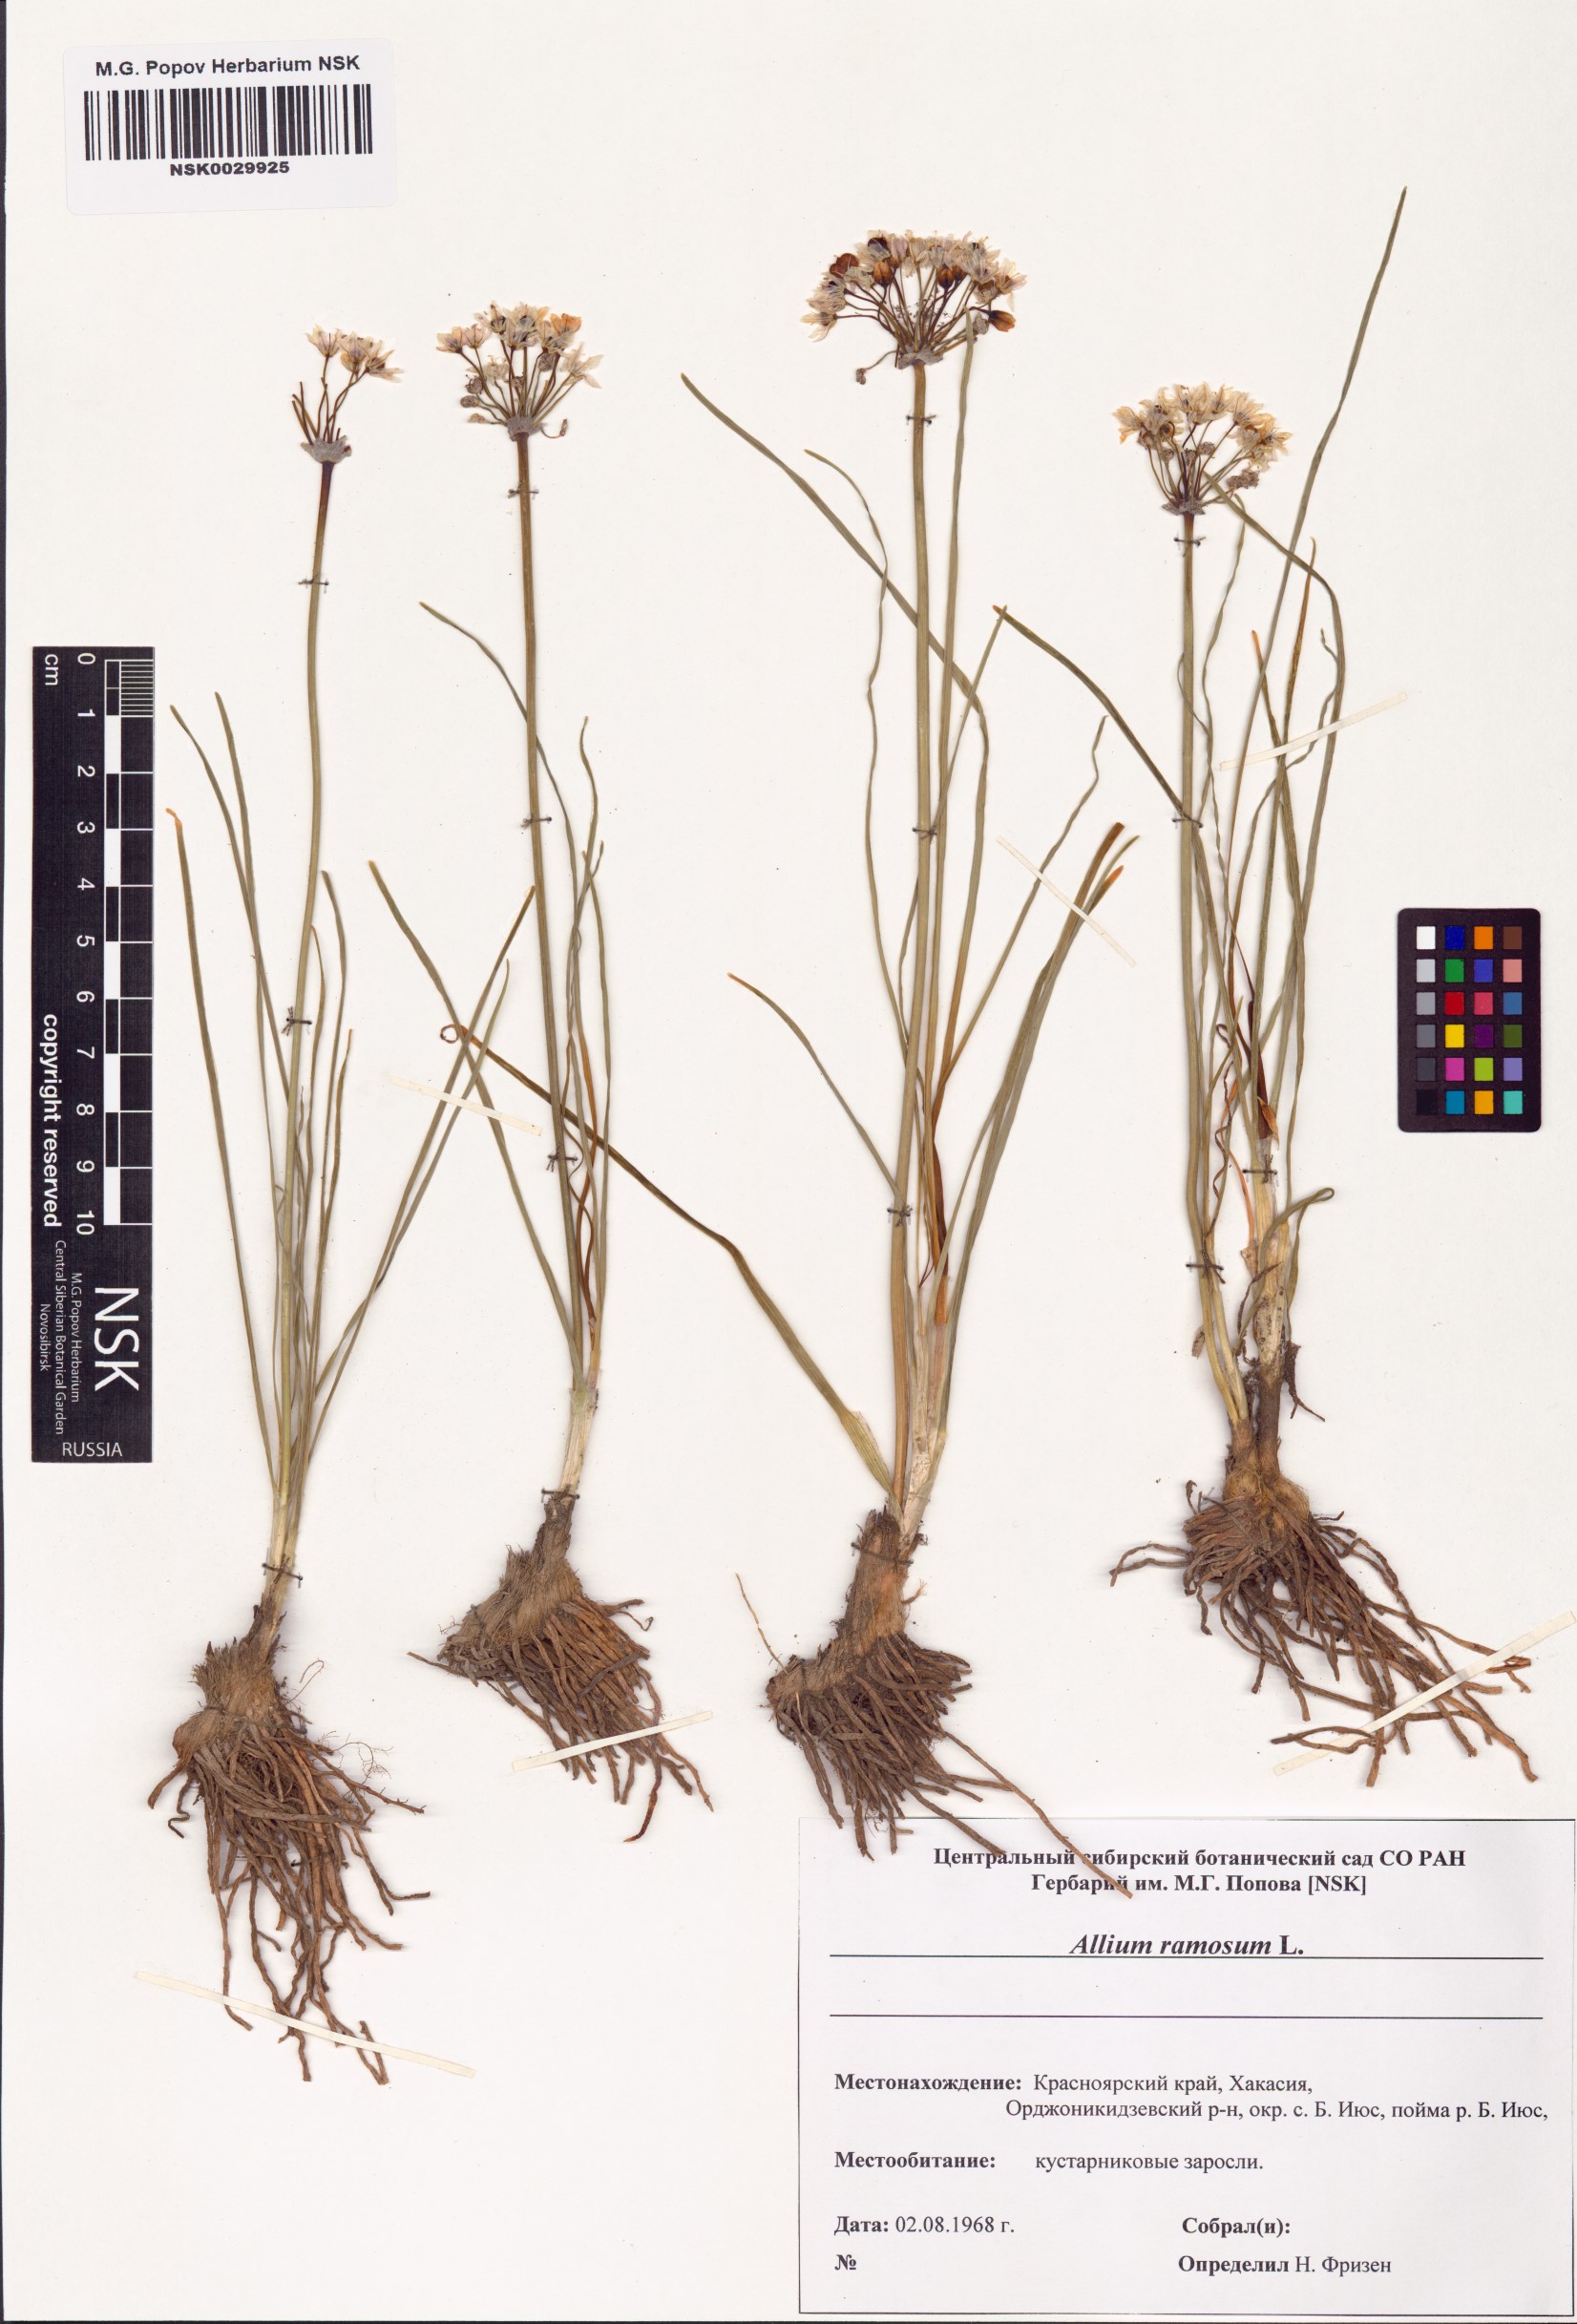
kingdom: Plantae
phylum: Tracheophyta
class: Liliopsida
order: Asparagales
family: Amaryllidaceae
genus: Allium
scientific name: Allium ramosum
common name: Fragrant garlic
